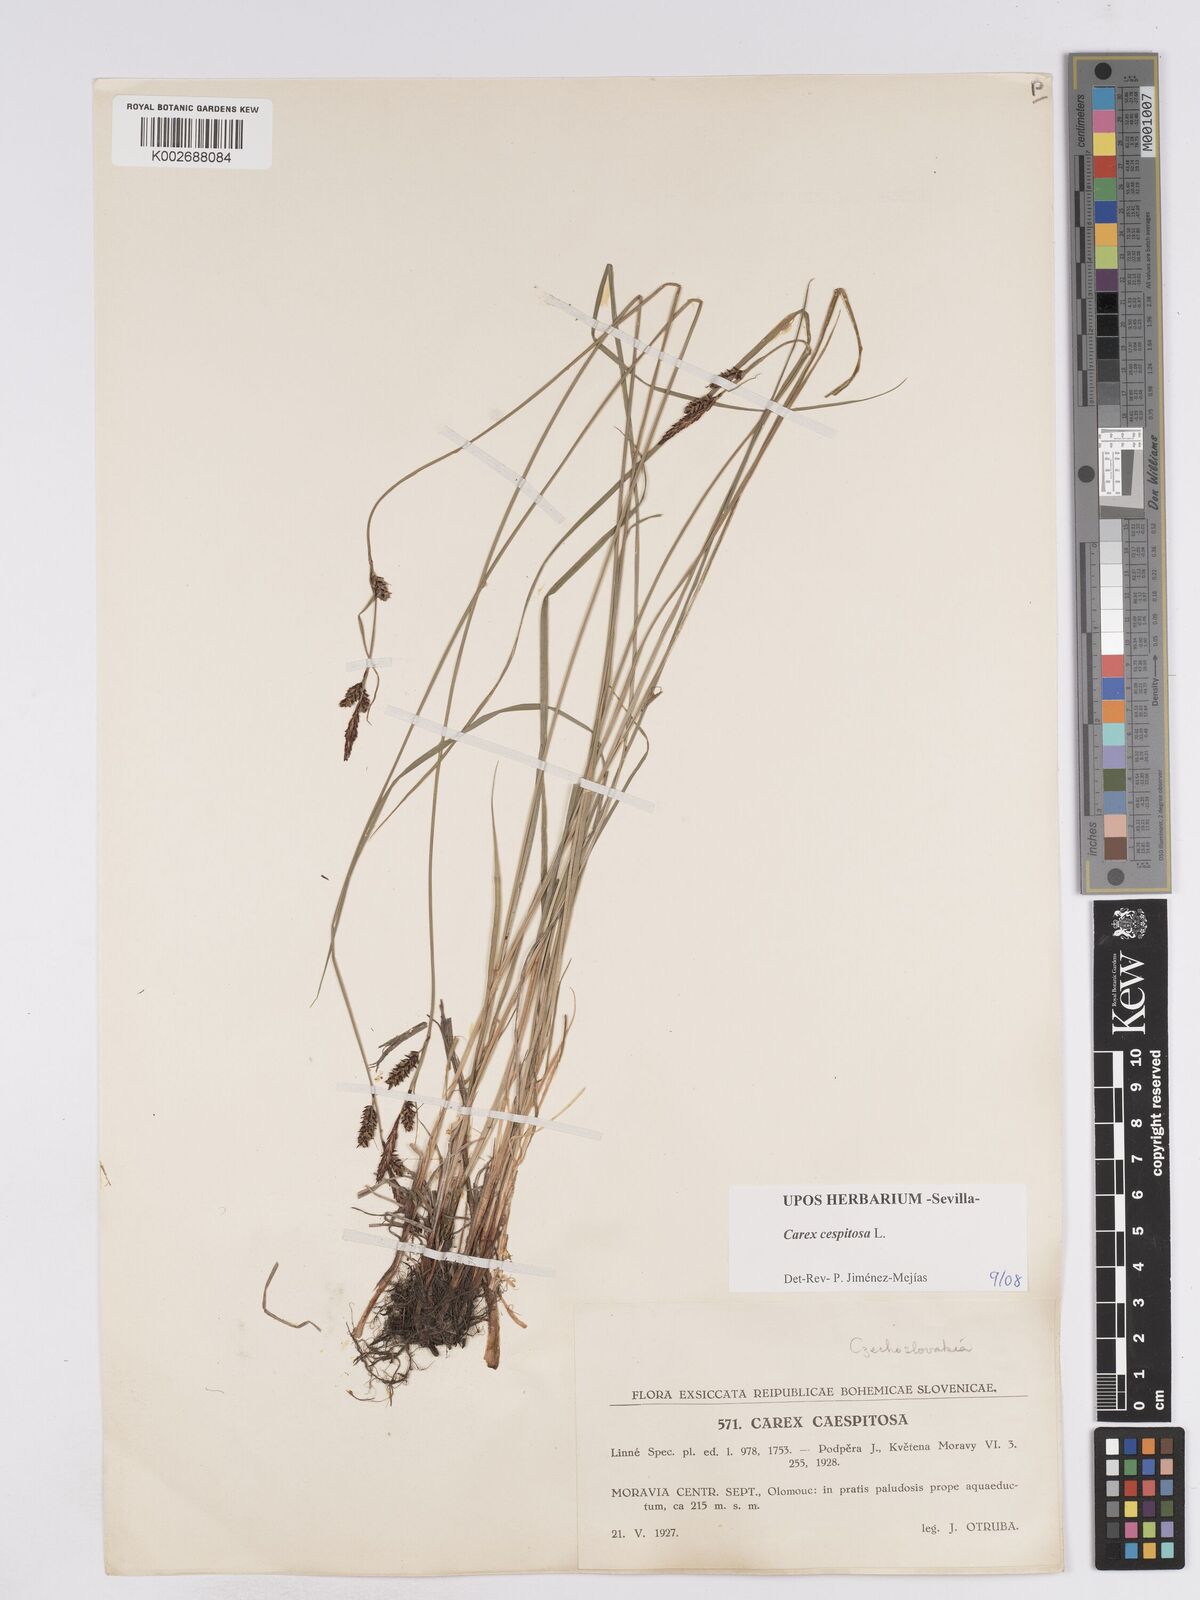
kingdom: Plantae
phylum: Tracheophyta
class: Liliopsida
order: Poales
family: Cyperaceae
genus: Carex
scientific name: Carex
